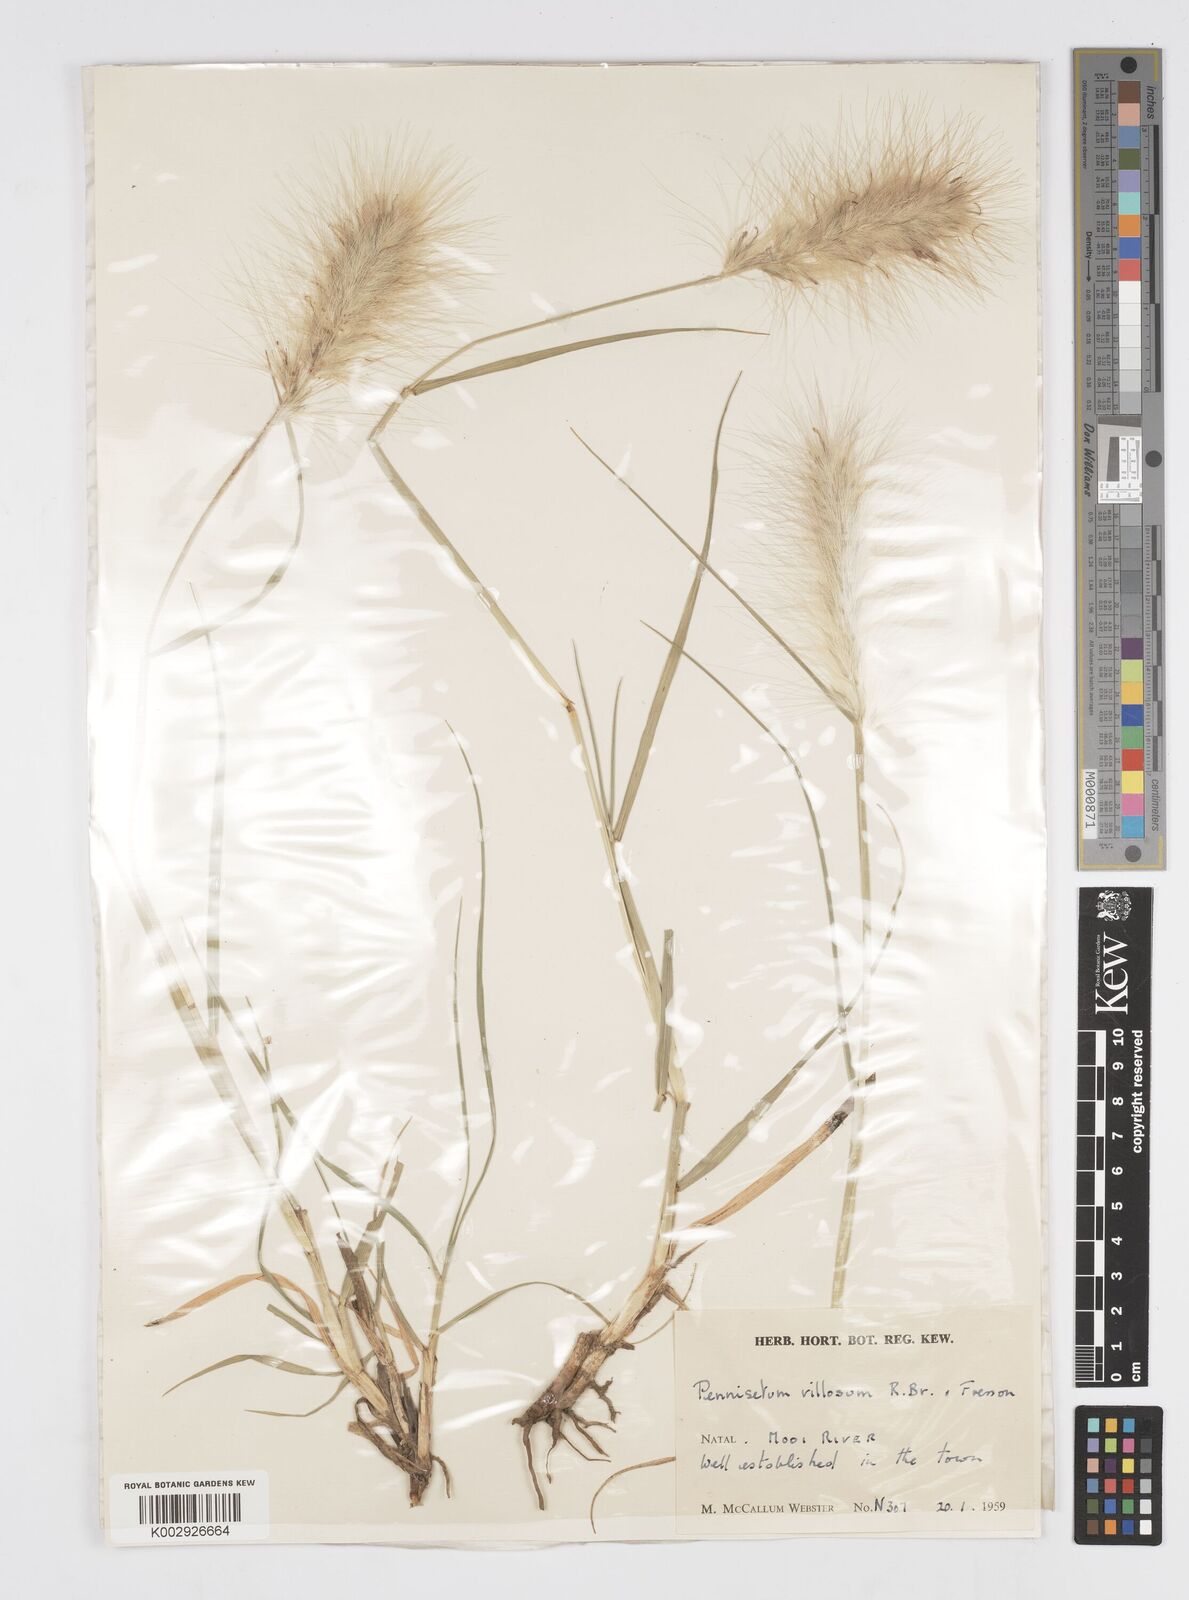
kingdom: Plantae
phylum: Tracheophyta
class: Liliopsida
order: Poales
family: Poaceae
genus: Cenchrus
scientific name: Cenchrus longisetus
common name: Feathertop
